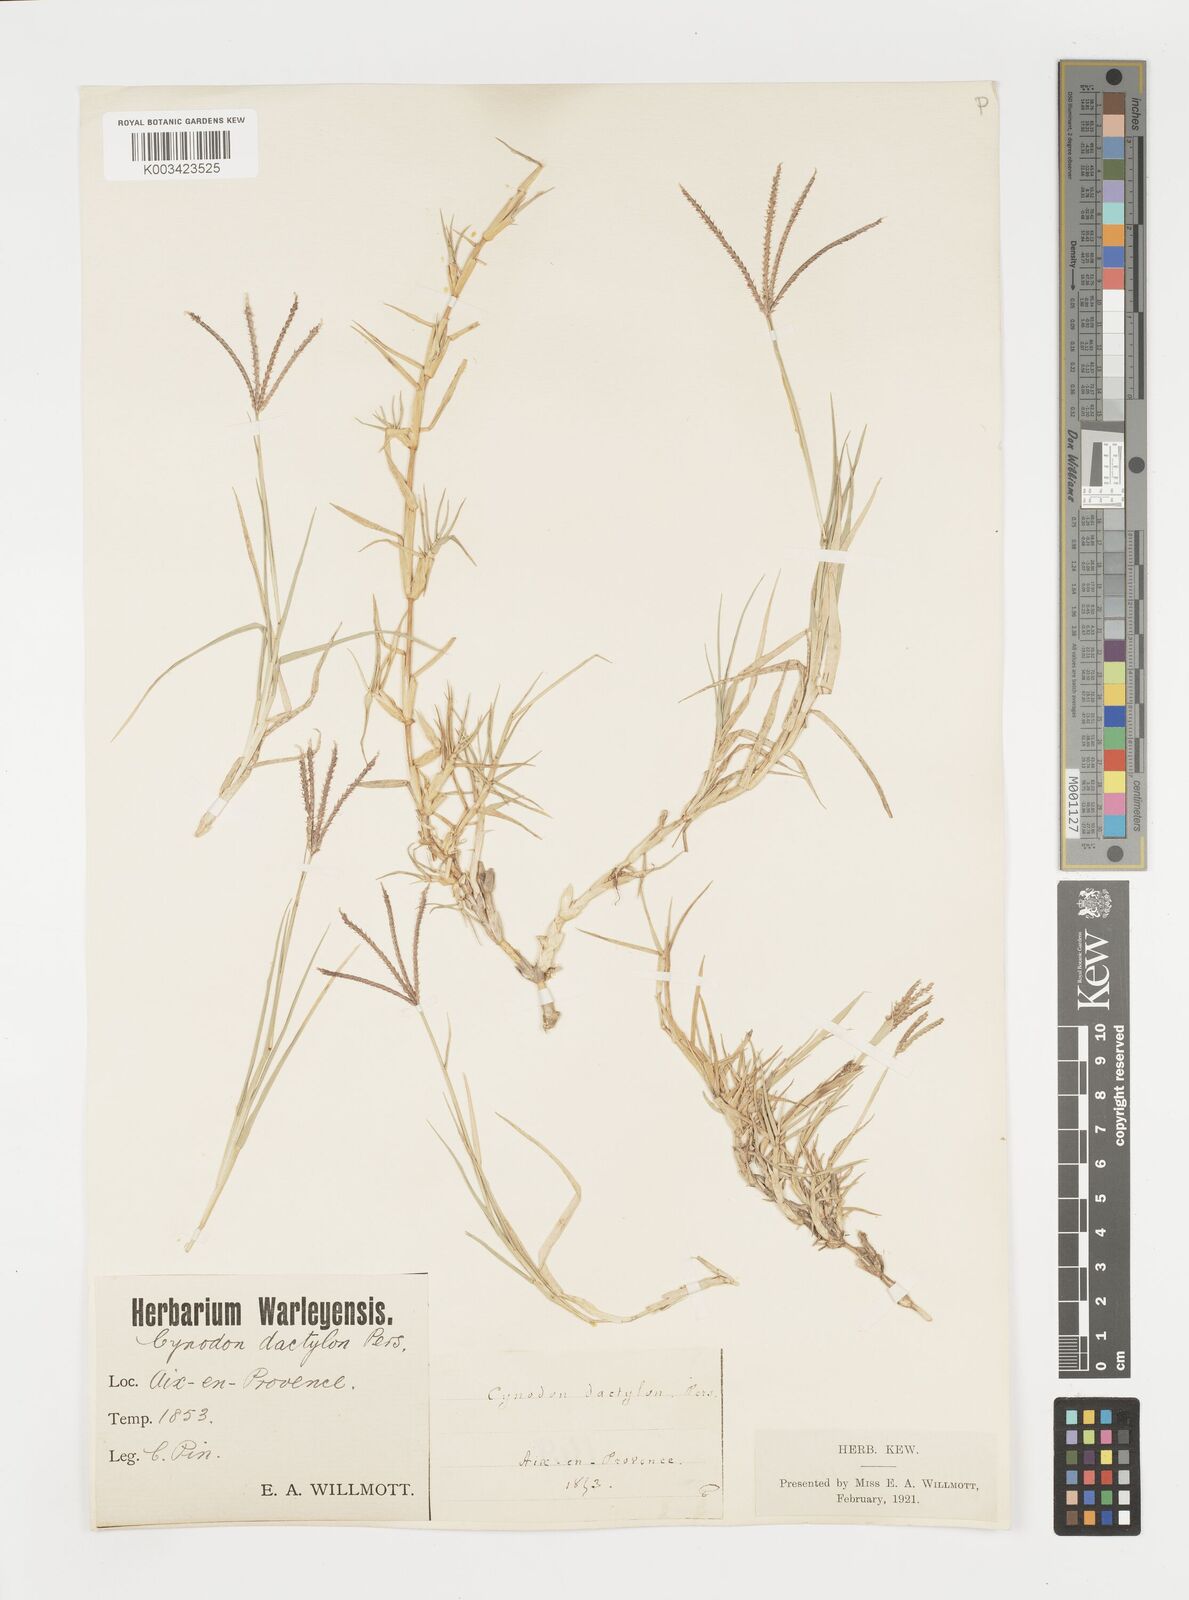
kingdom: Plantae
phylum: Tracheophyta
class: Liliopsida
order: Poales
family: Poaceae
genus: Cynodon
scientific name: Cynodon dactylon
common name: Bermuda grass
